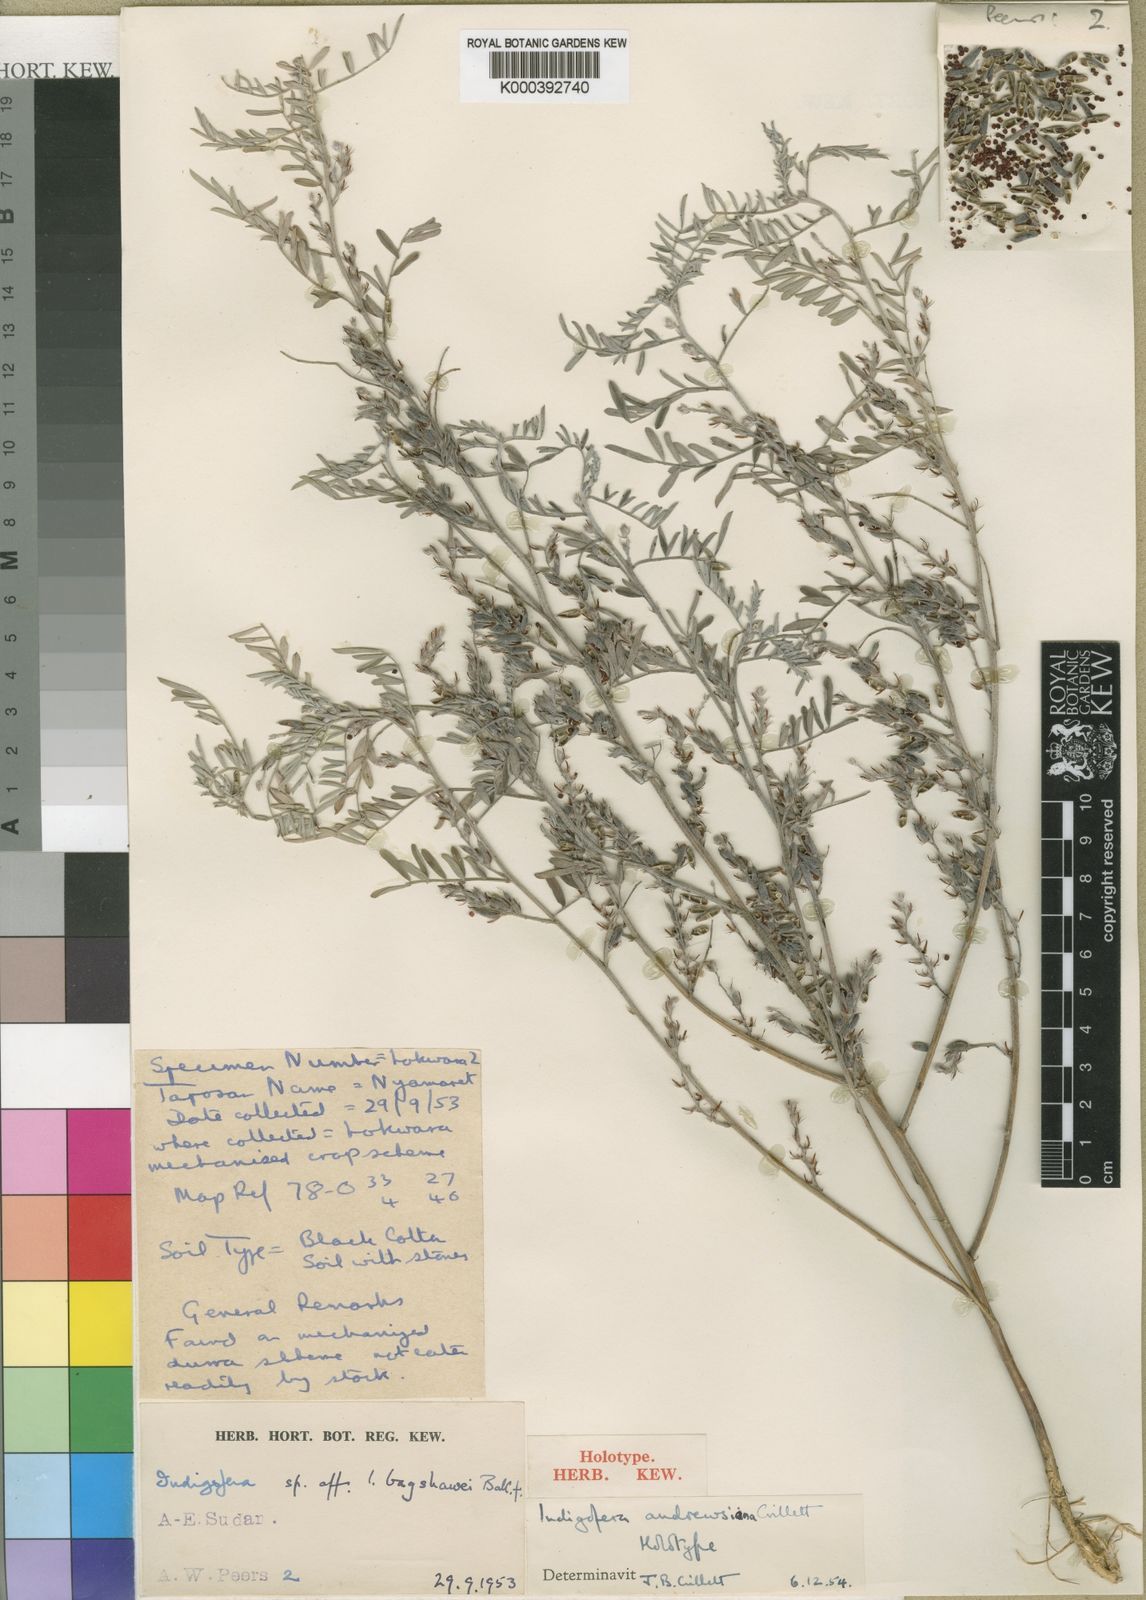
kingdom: Plantae
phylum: Tracheophyta
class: Magnoliopsida
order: Fabales
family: Fabaceae
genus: Indigofera
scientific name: Indigofera andrewsiana
